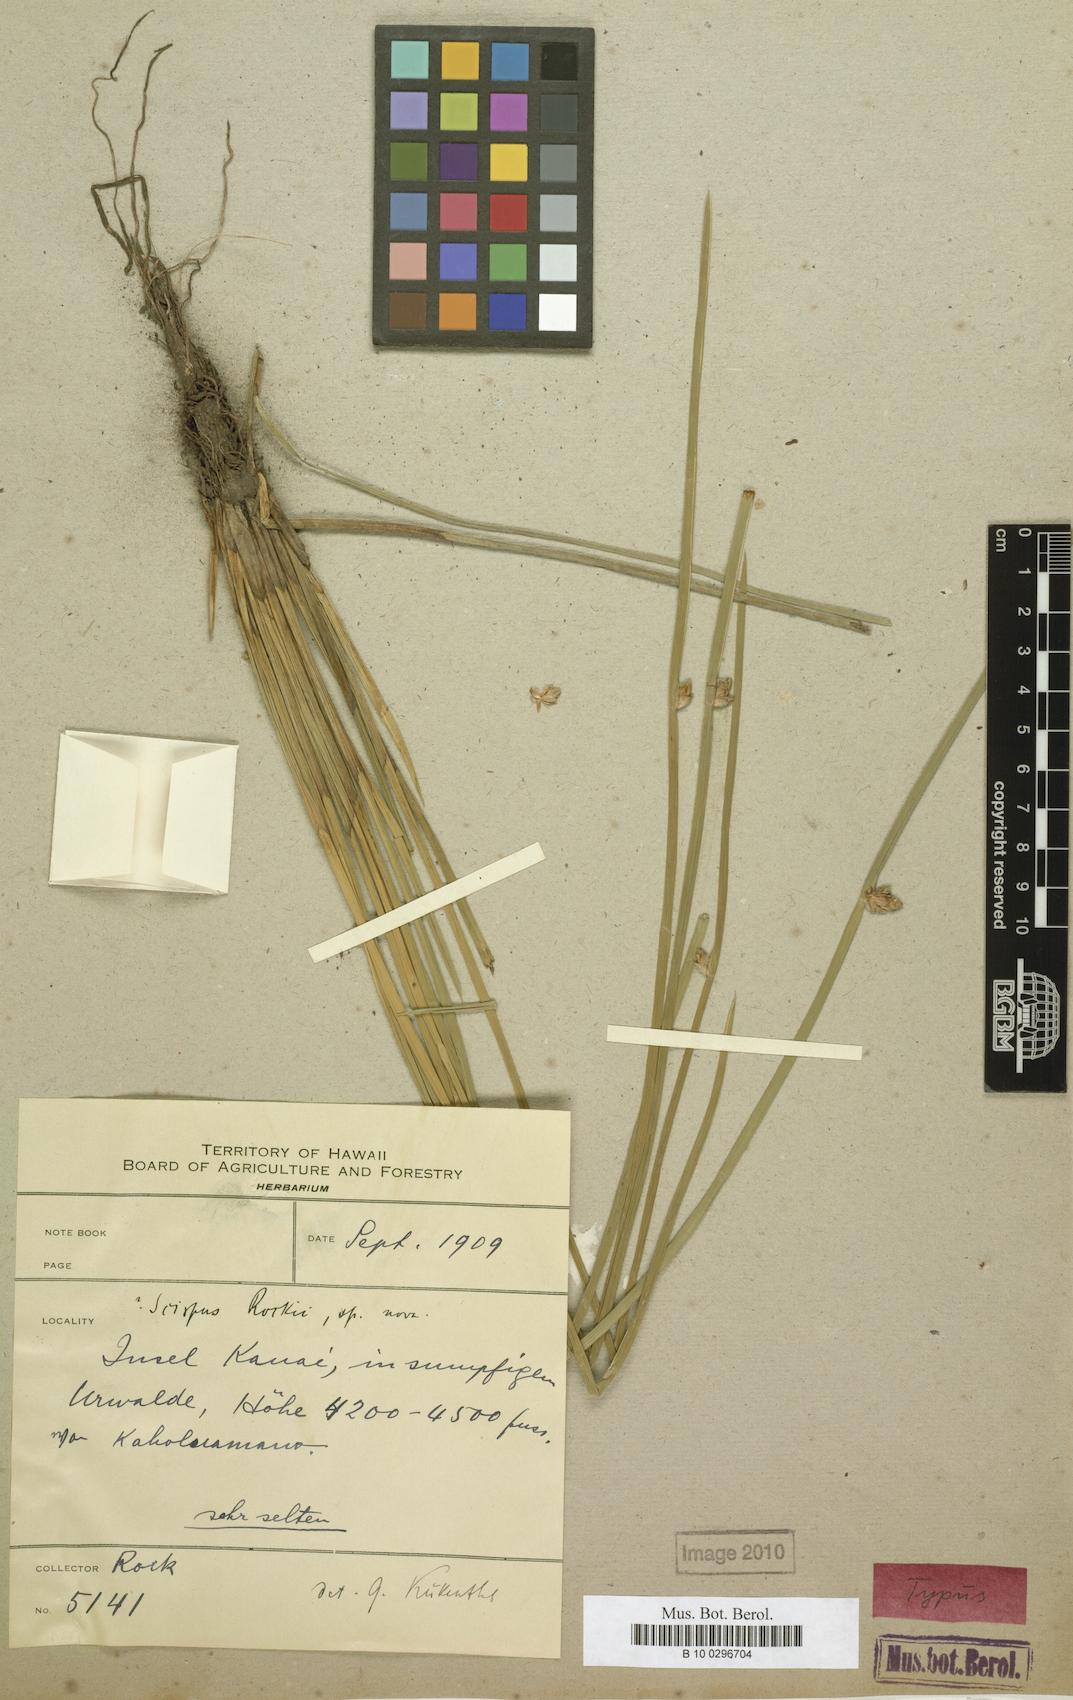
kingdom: Plantae
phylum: Tracheophyta
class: Liliopsida
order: Poales
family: Cyperaceae
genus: Schoenoplectiella
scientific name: Schoenoplectiella juncoides
